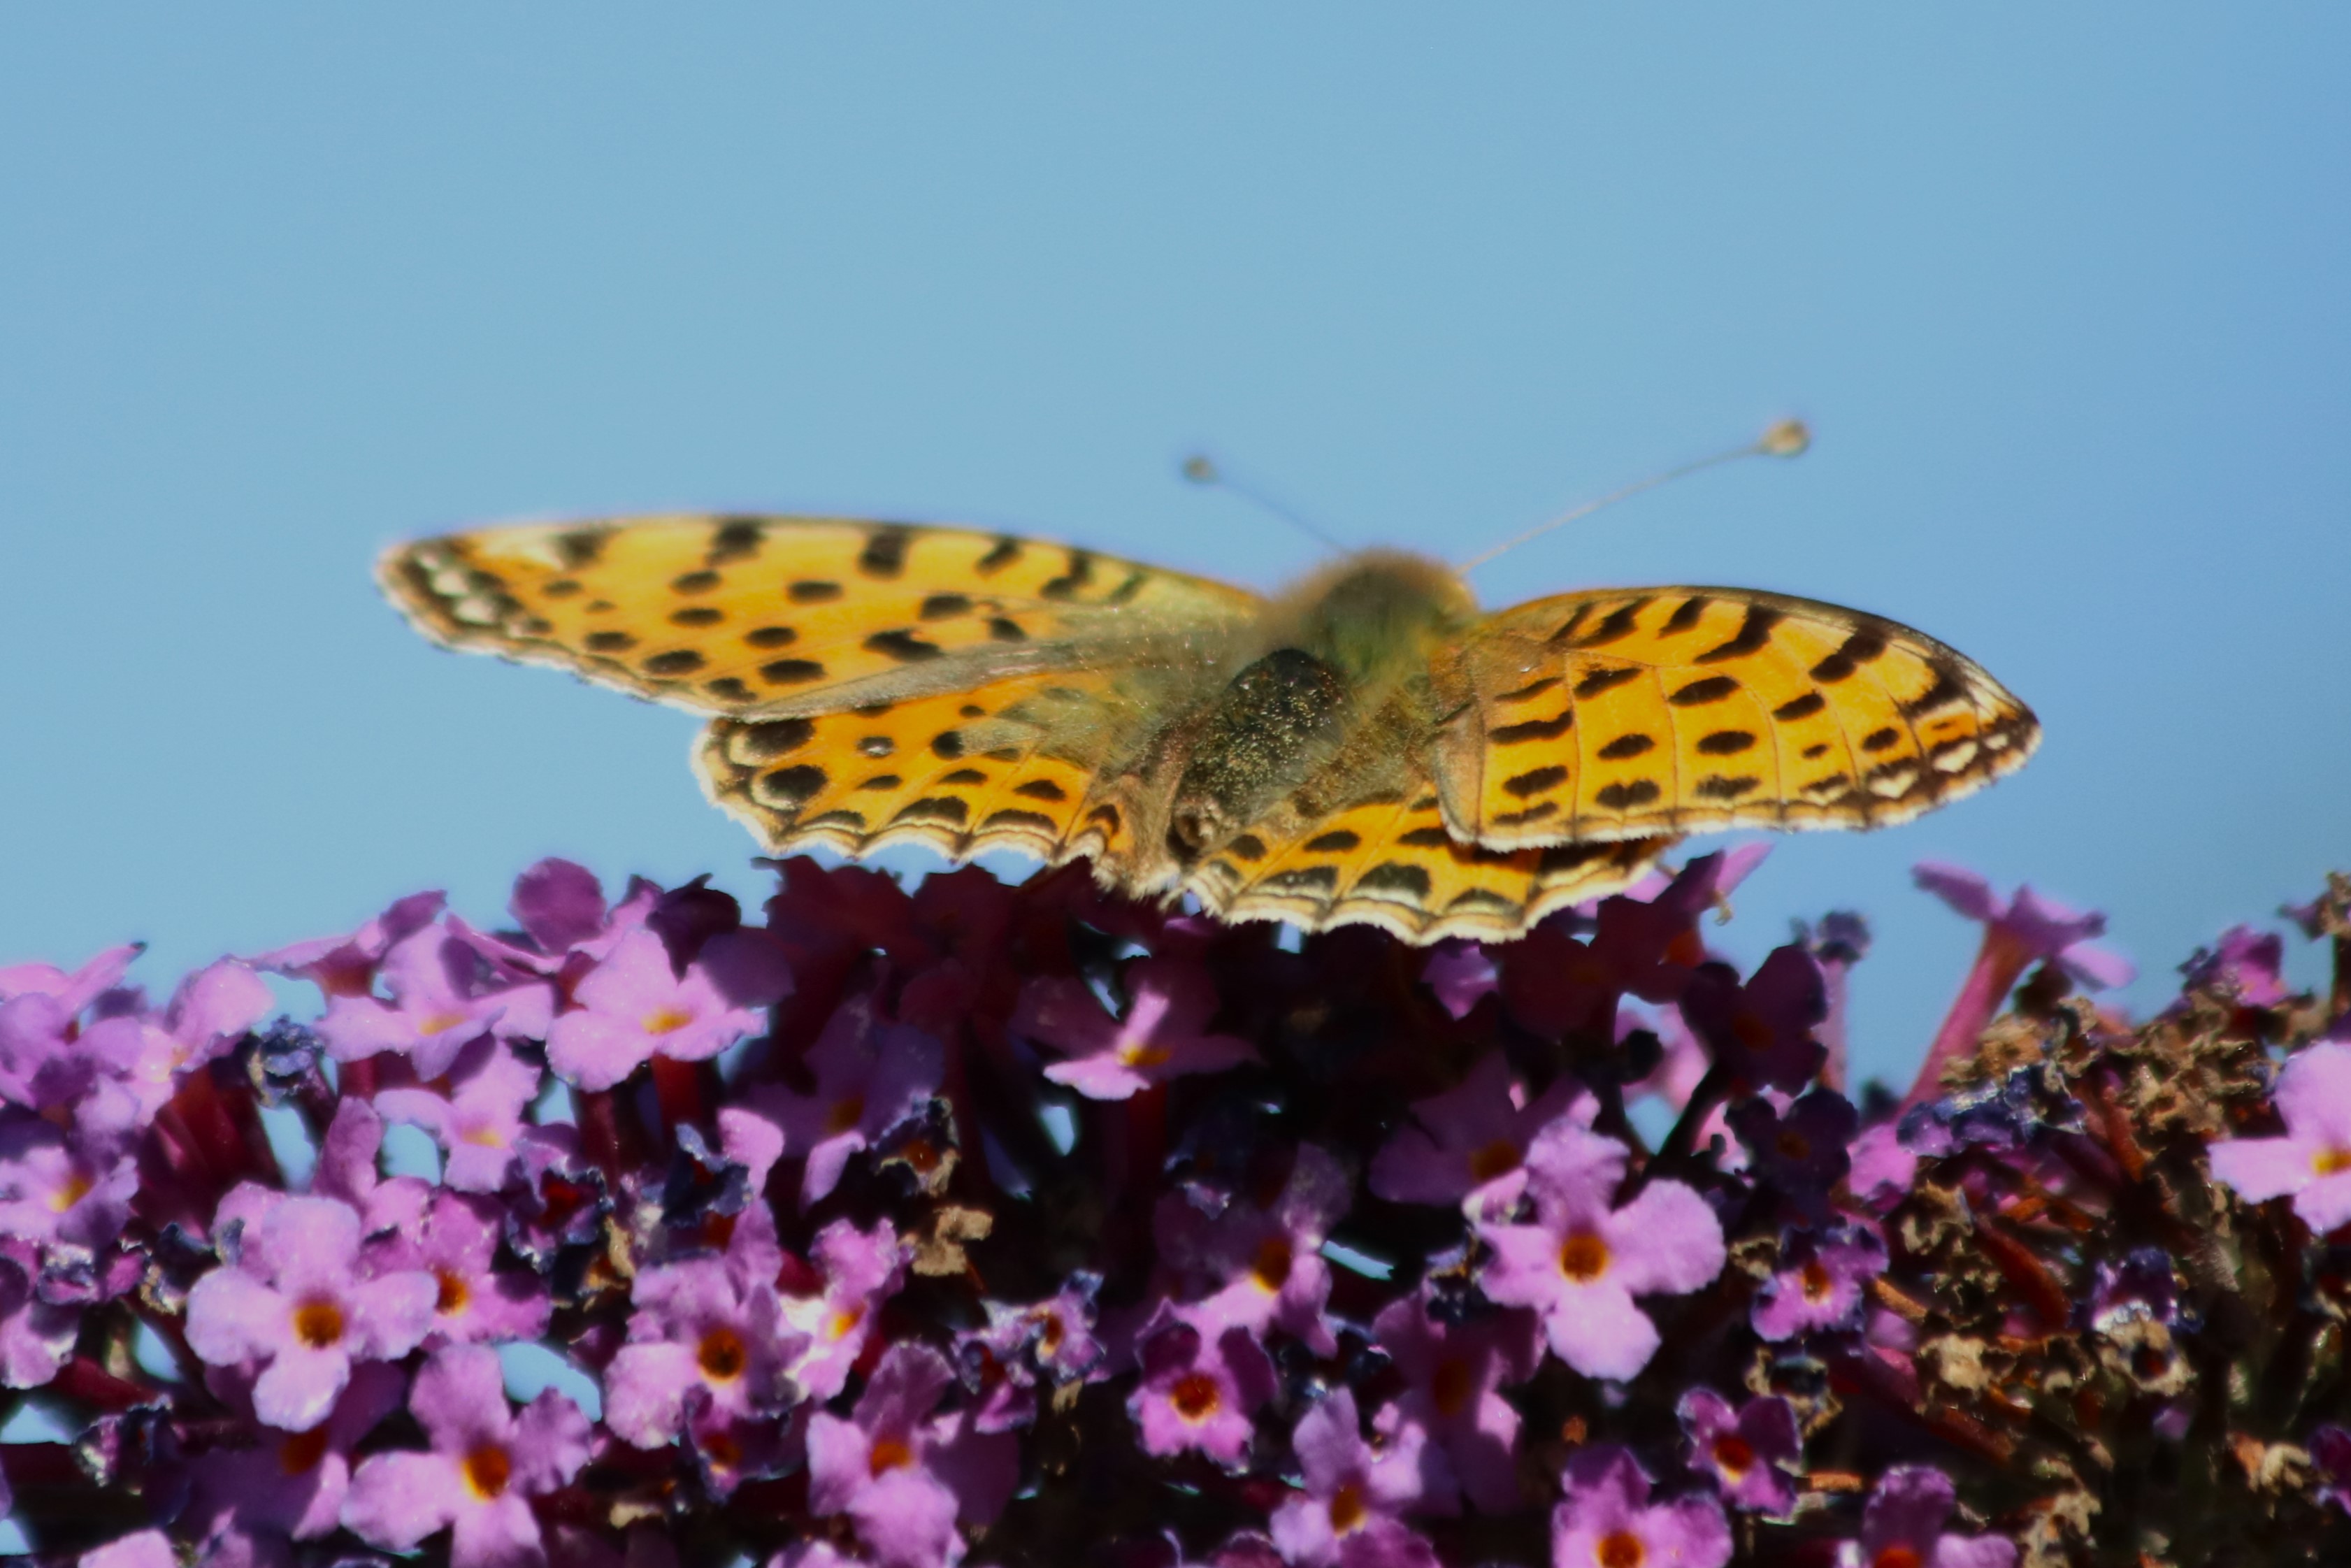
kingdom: Animalia
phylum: Arthropoda
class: Insecta
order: Lepidoptera
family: Nymphalidae
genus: Issoria
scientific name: Issoria lathonia
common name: Storplettet perlemorsommerfugl
